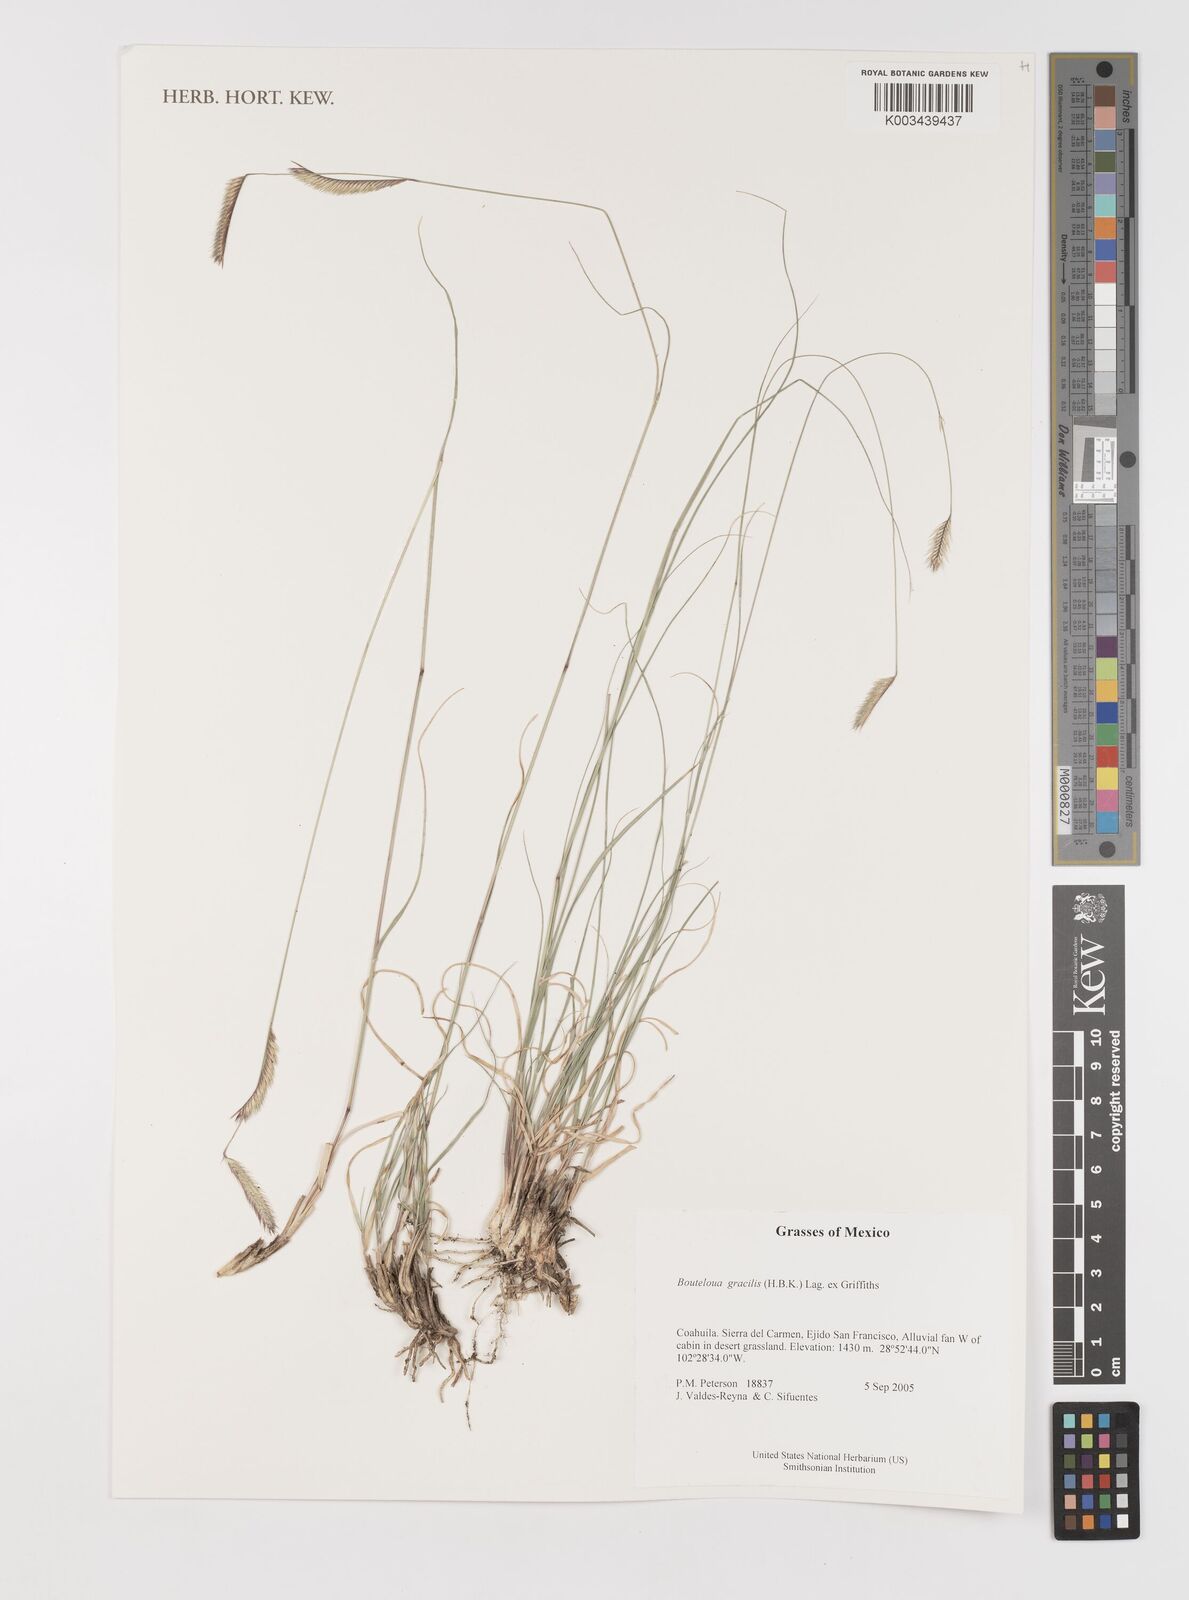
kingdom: Plantae
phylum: Tracheophyta
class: Liliopsida
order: Poales
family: Poaceae
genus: Bouteloua
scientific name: Bouteloua aristidoides
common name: Needle grama
